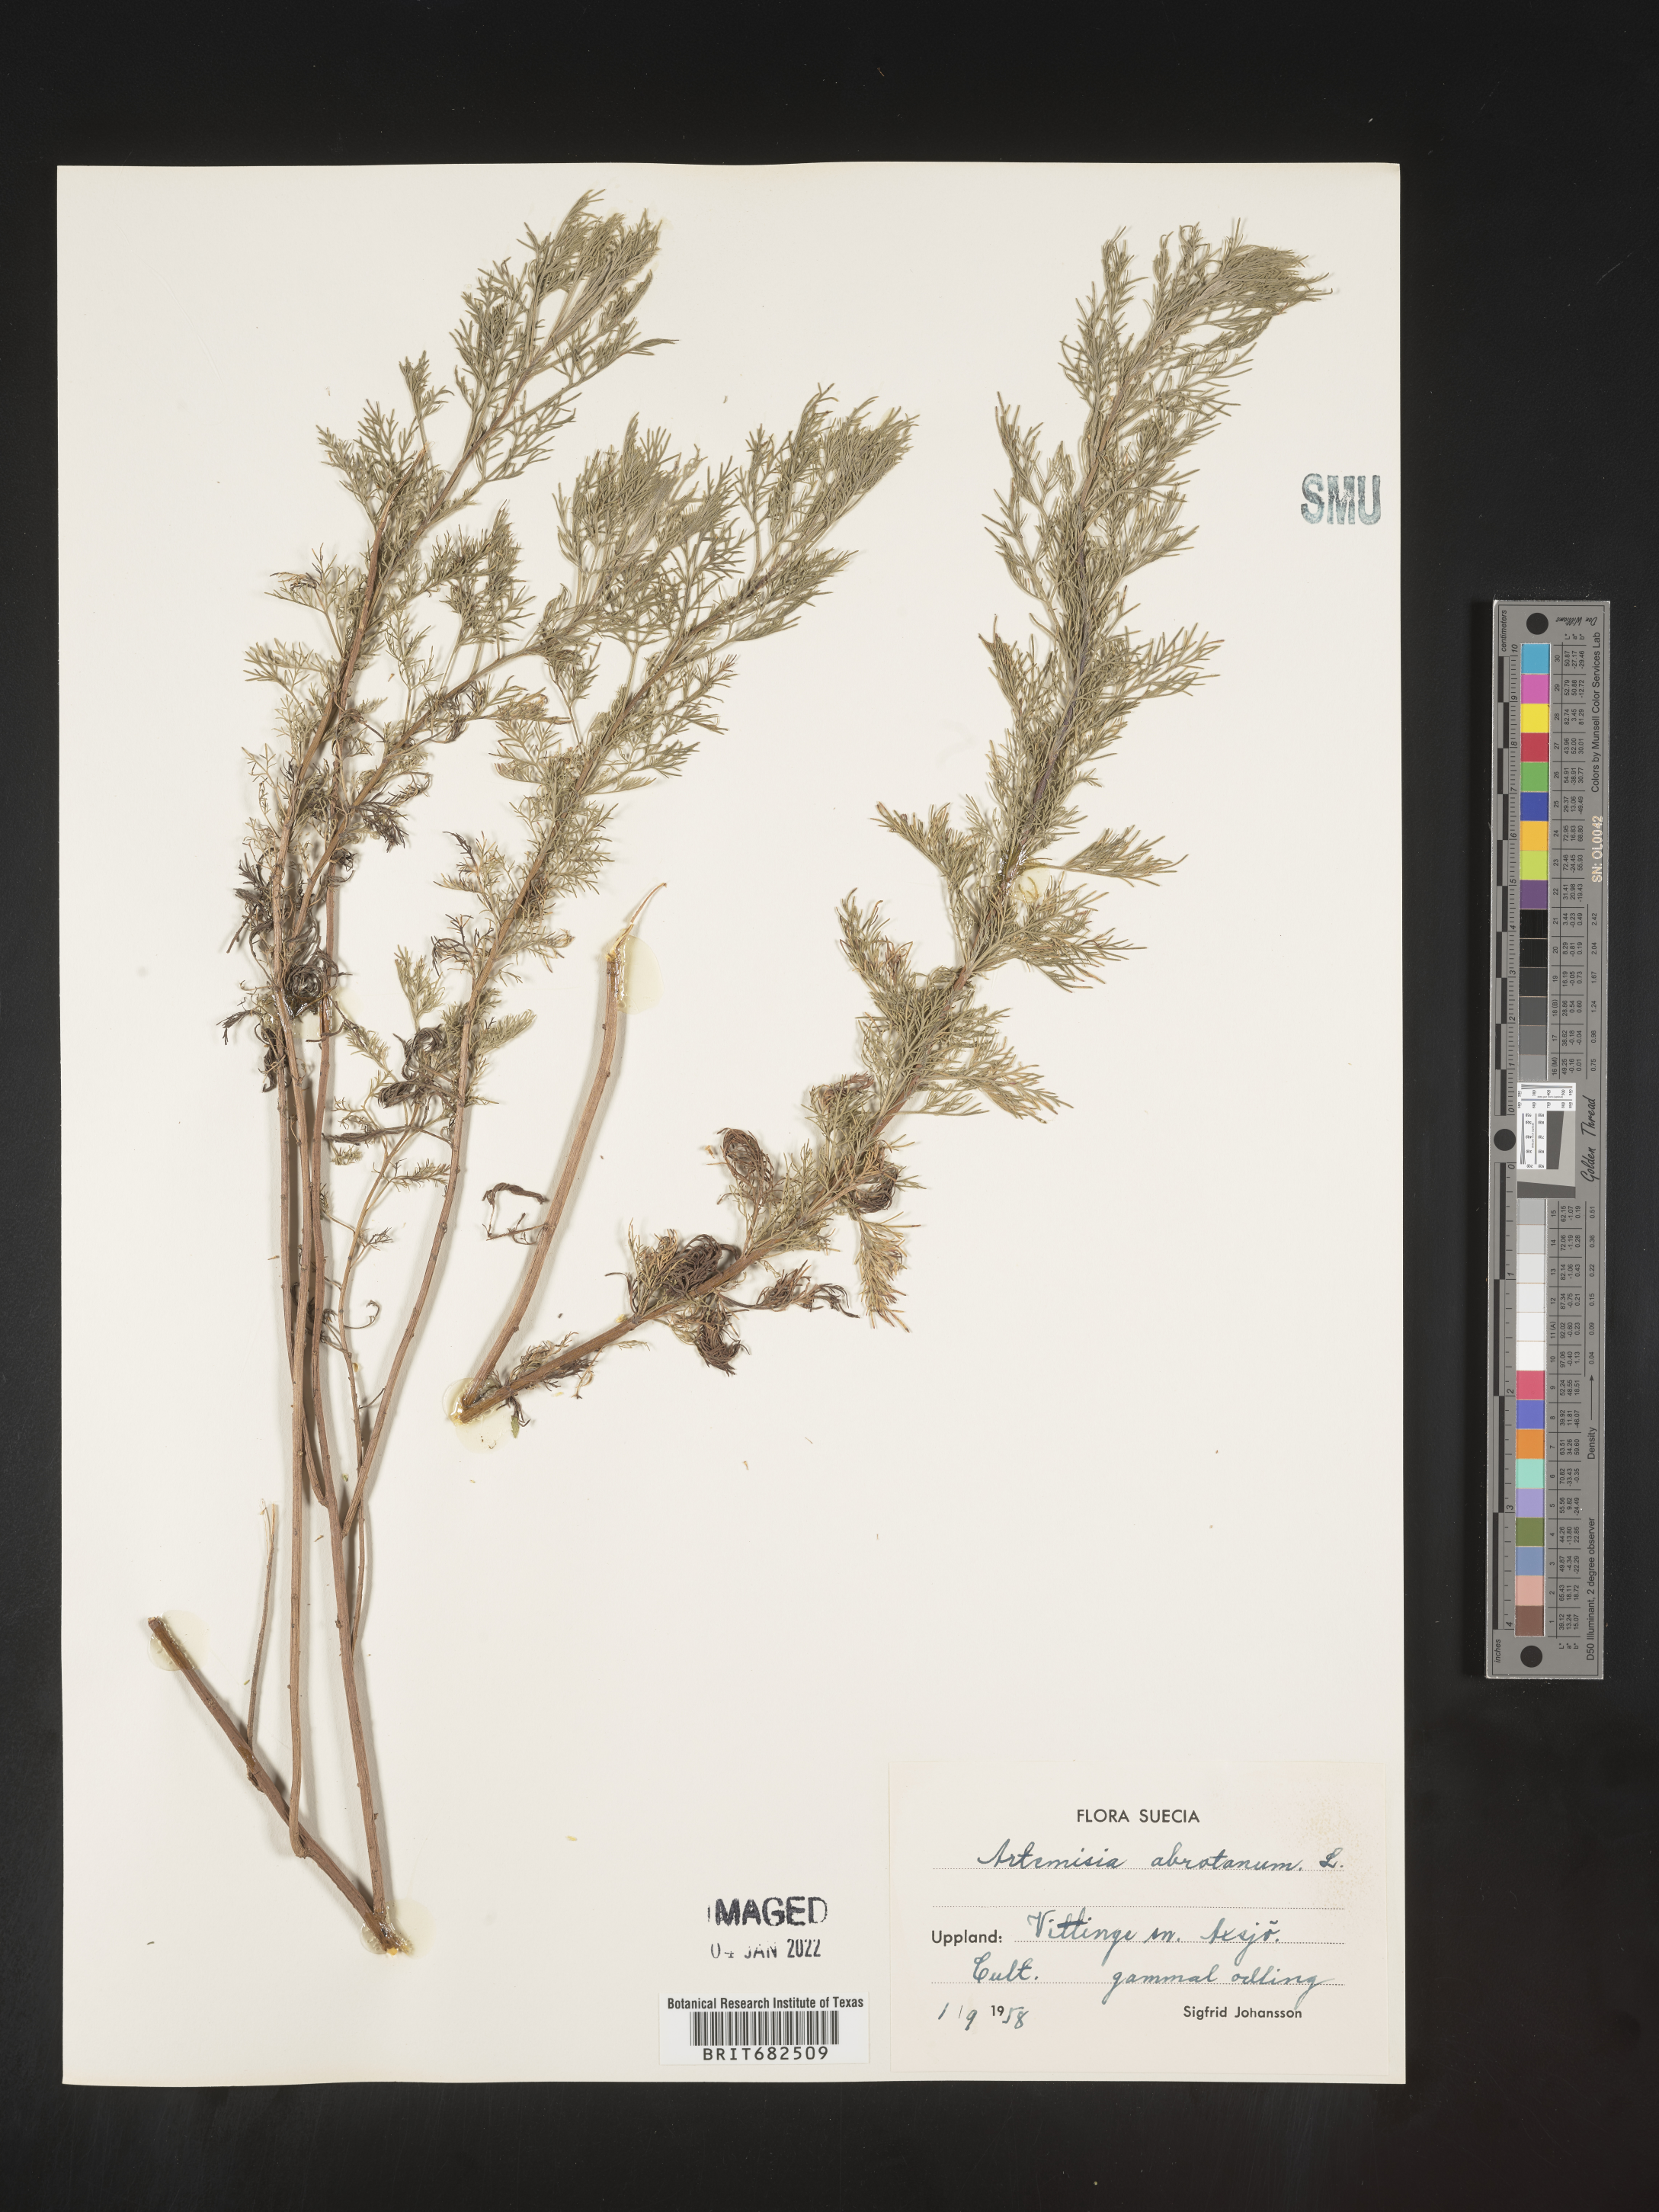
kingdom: Plantae
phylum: Tracheophyta
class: Magnoliopsida
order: Asterales
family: Asteraceae
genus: Artemisia
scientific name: Artemisia
